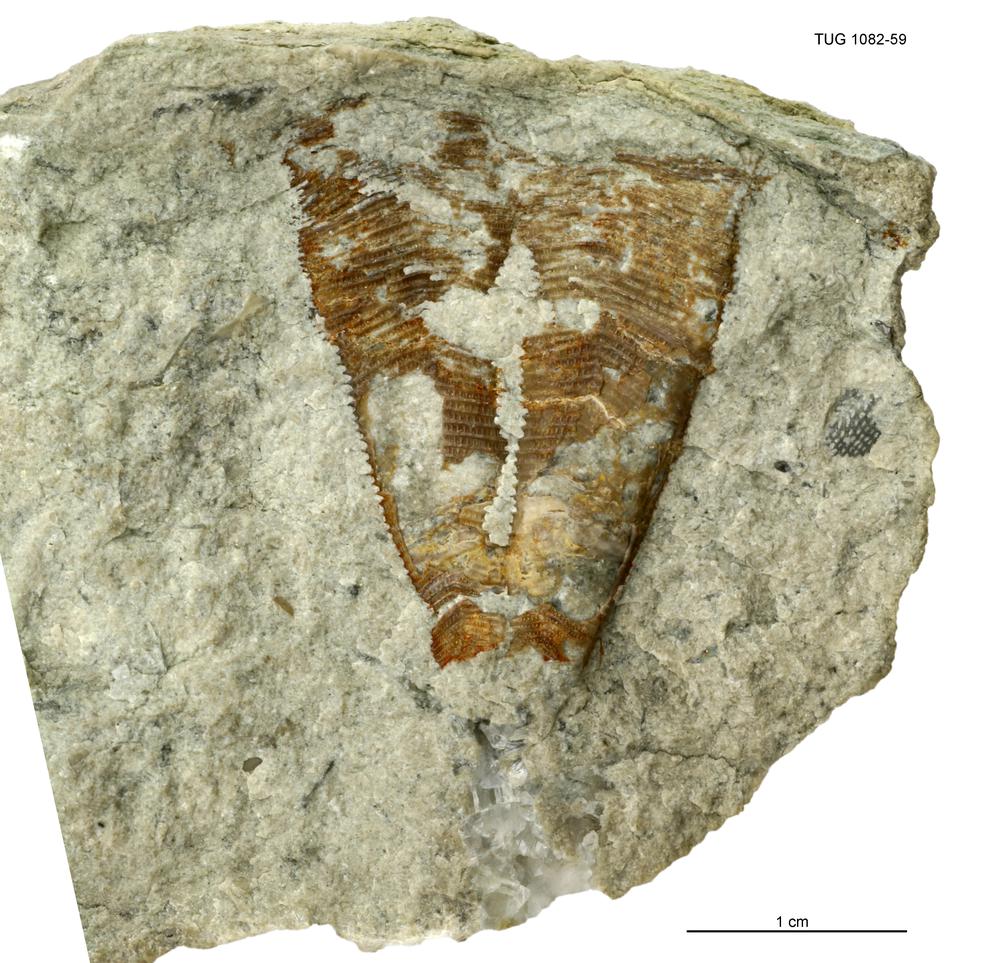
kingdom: Animalia
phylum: Cnidaria
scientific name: Cnidaria
